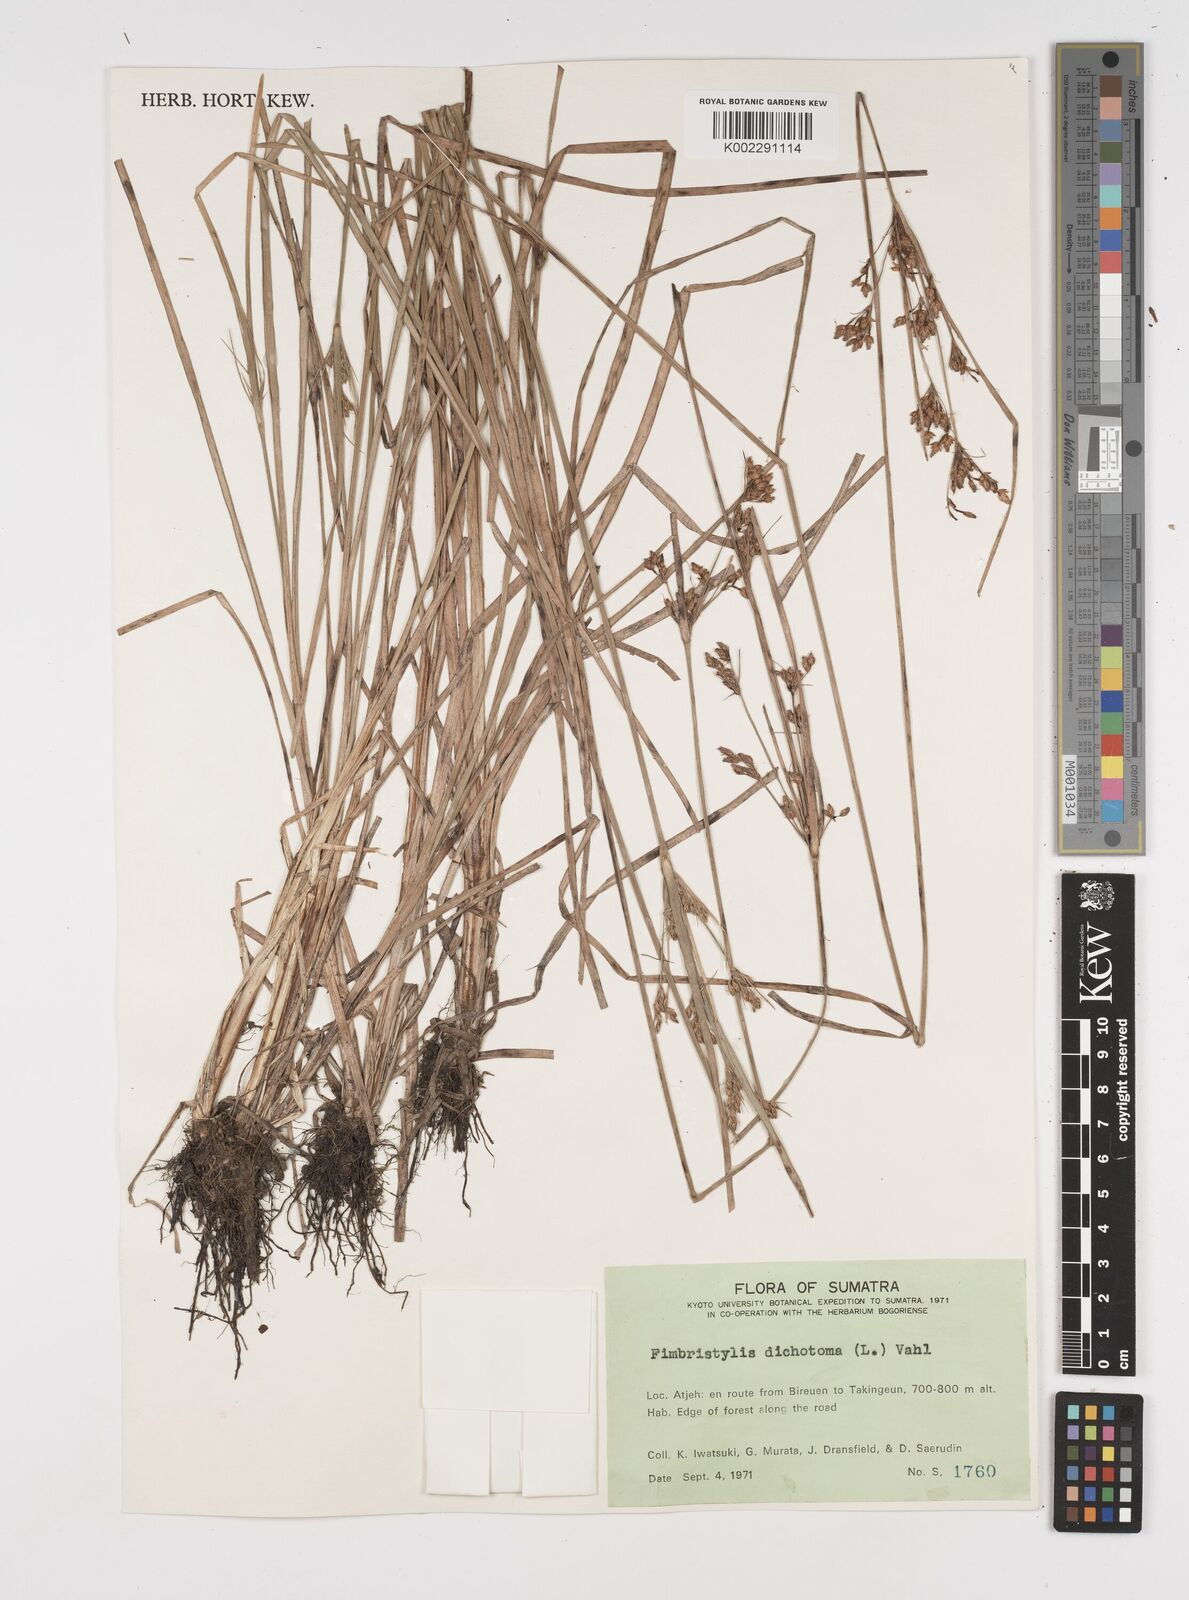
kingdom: Plantae
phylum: Tracheophyta
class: Liliopsida
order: Poales
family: Cyperaceae
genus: Fimbristylis
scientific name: Fimbristylis dichotoma
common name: Forked fimbry
